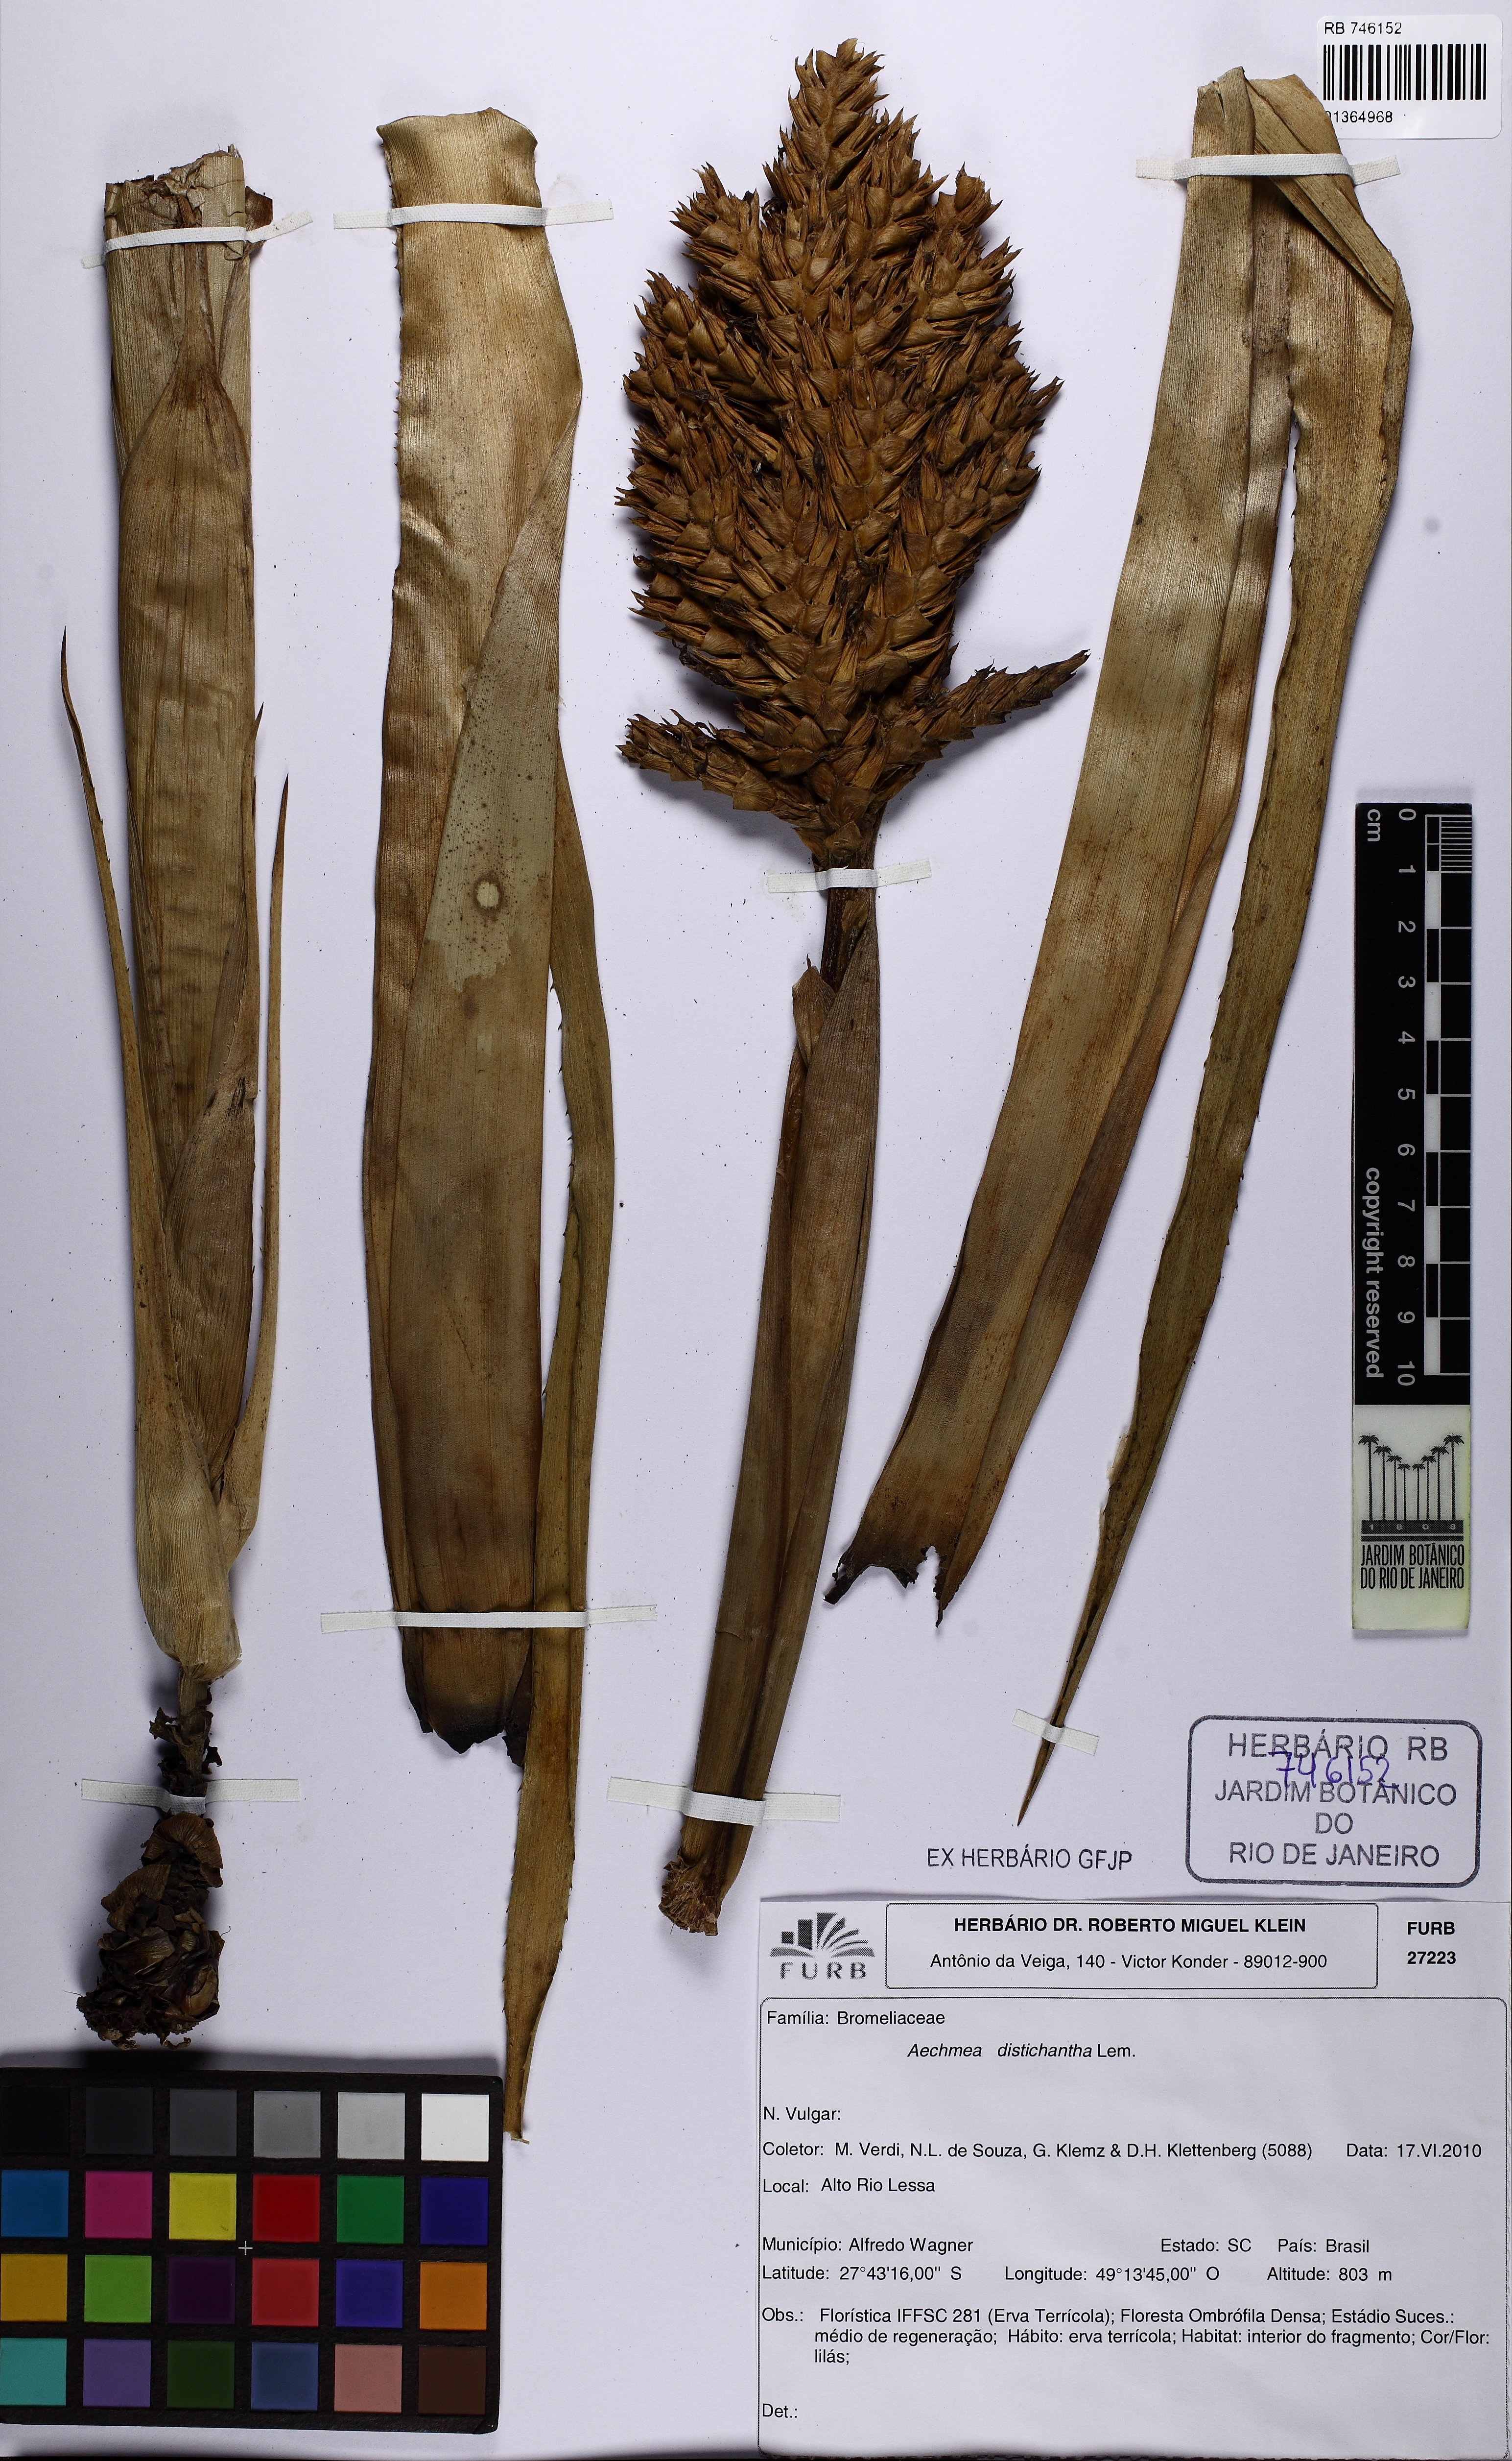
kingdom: Plantae
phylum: Tracheophyta
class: Liliopsida
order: Poales
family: Bromeliaceae
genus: Aechmea
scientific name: Aechmea distichantha
